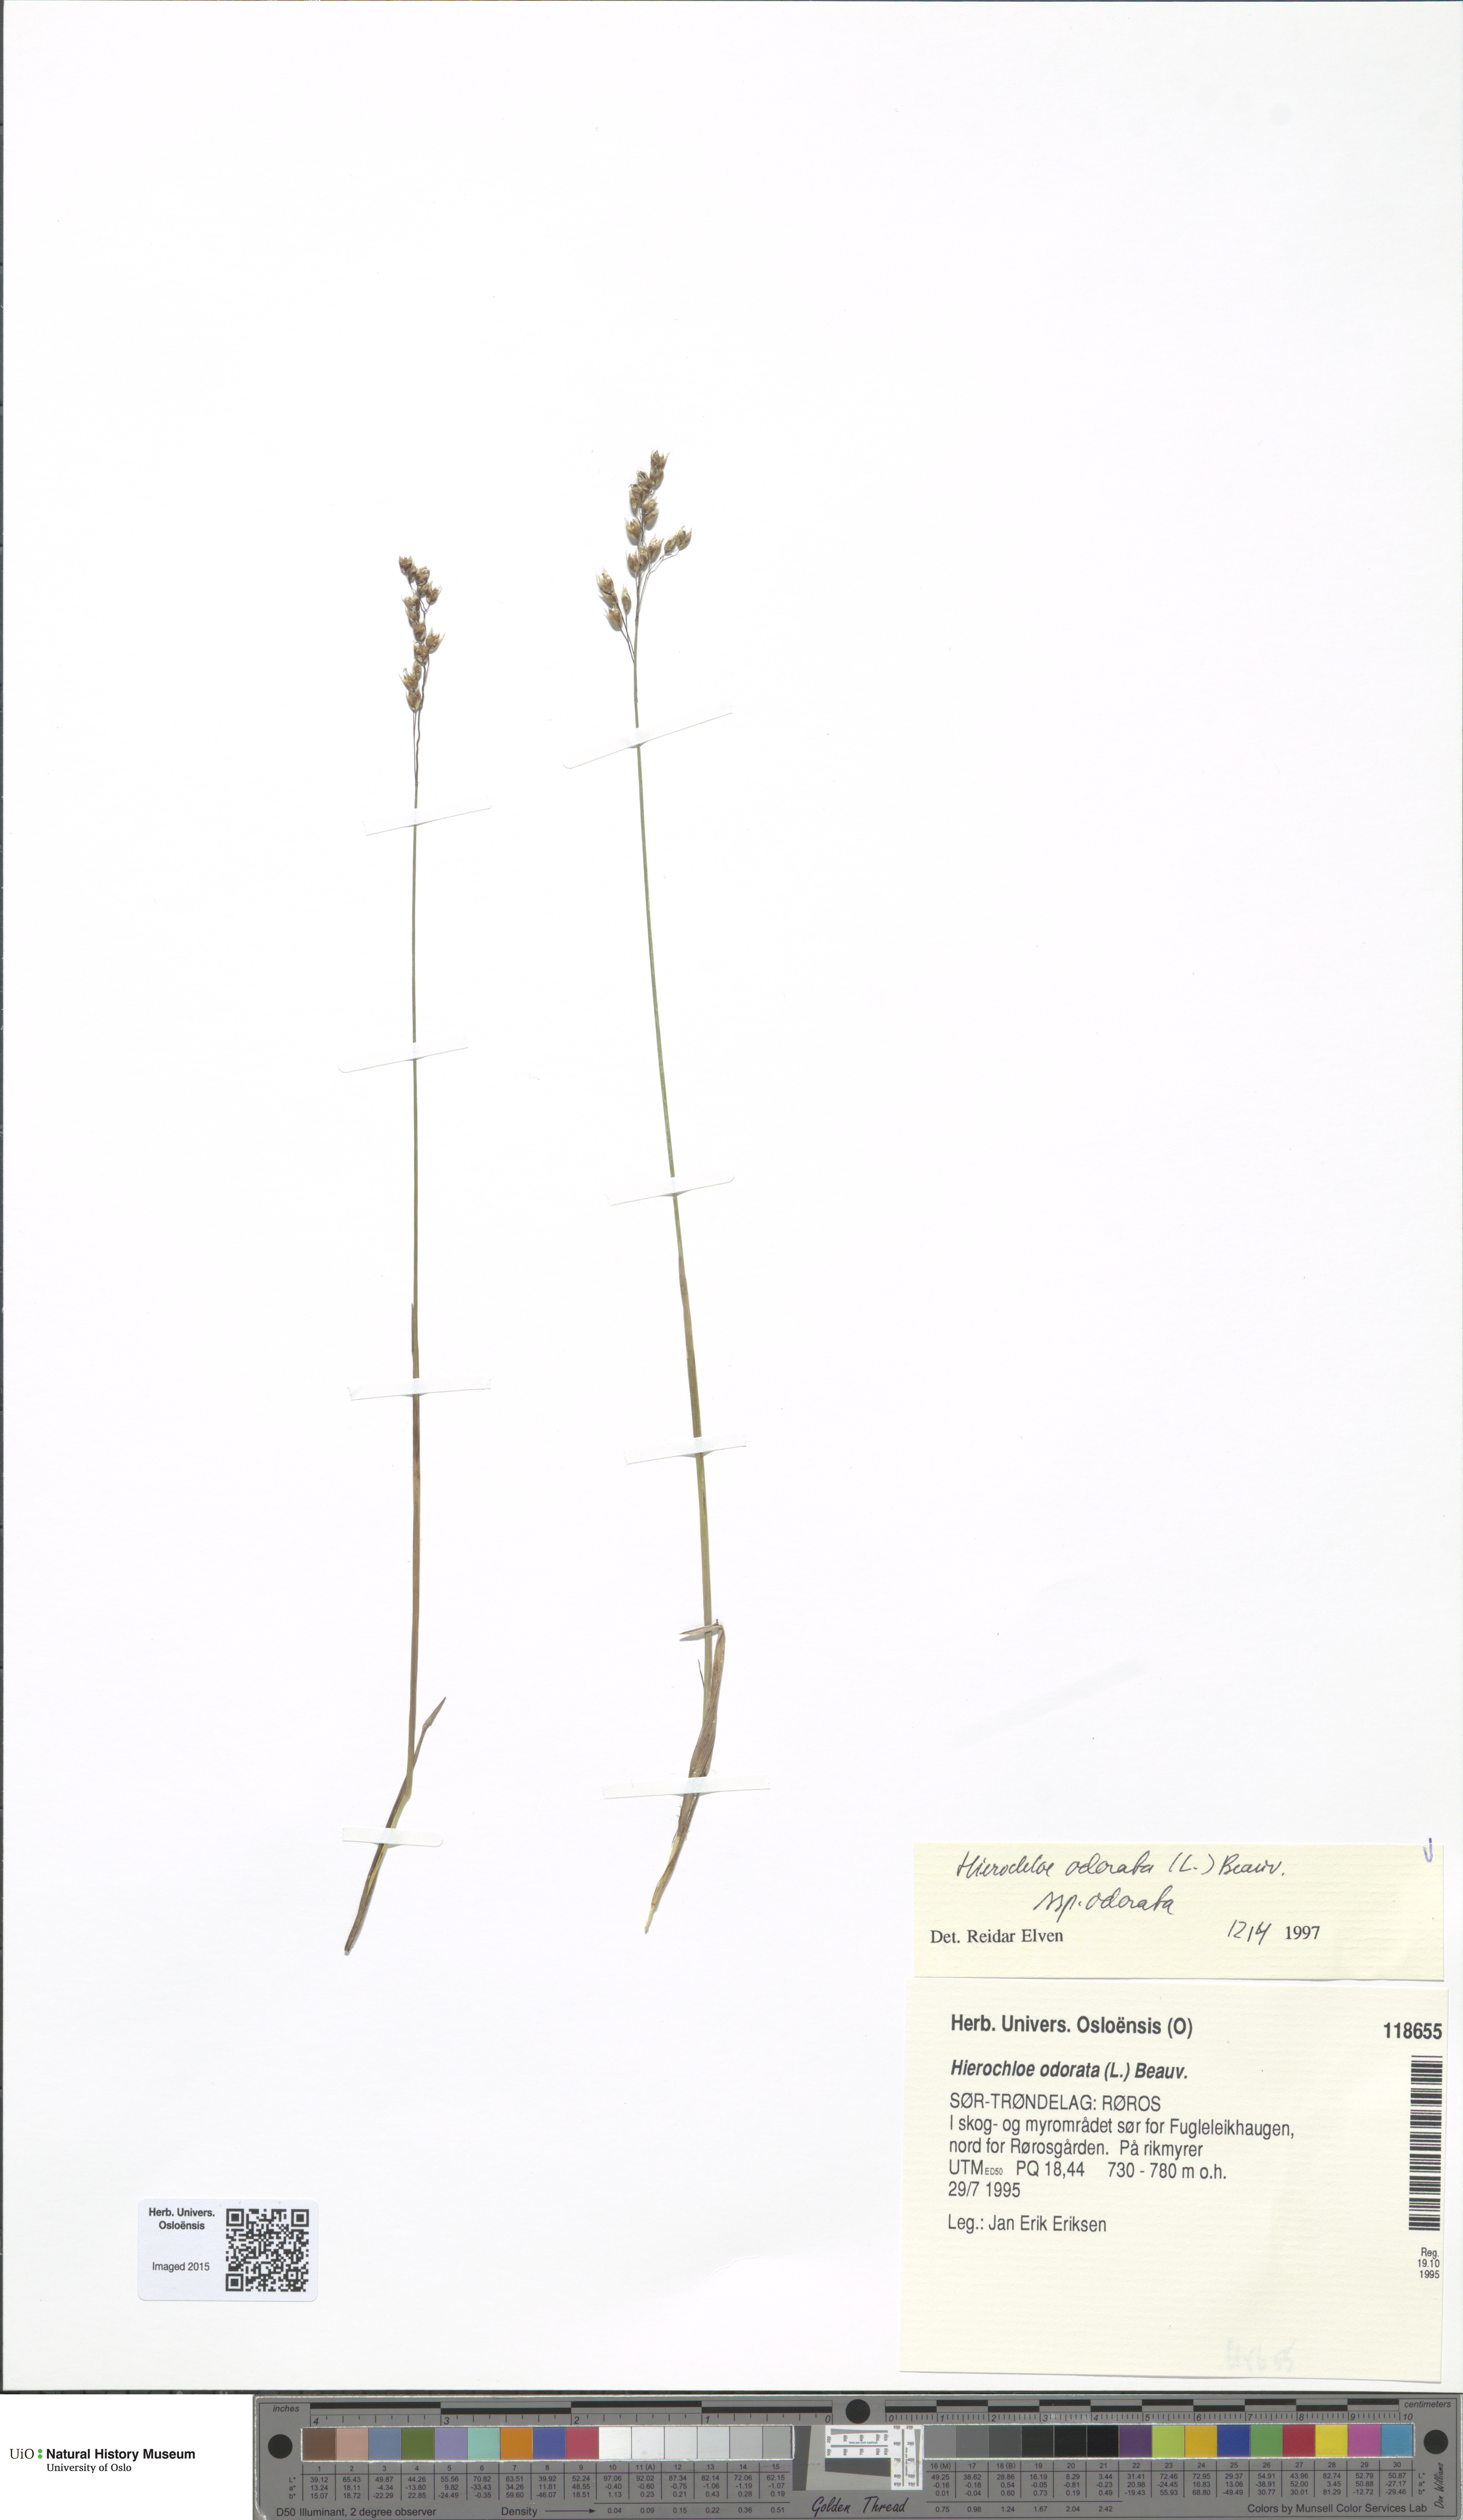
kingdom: Plantae
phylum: Tracheophyta
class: Liliopsida
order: Poales
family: Poaceae
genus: Anthoxanthum
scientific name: Anthoxanthum nitens
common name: Holy grass
